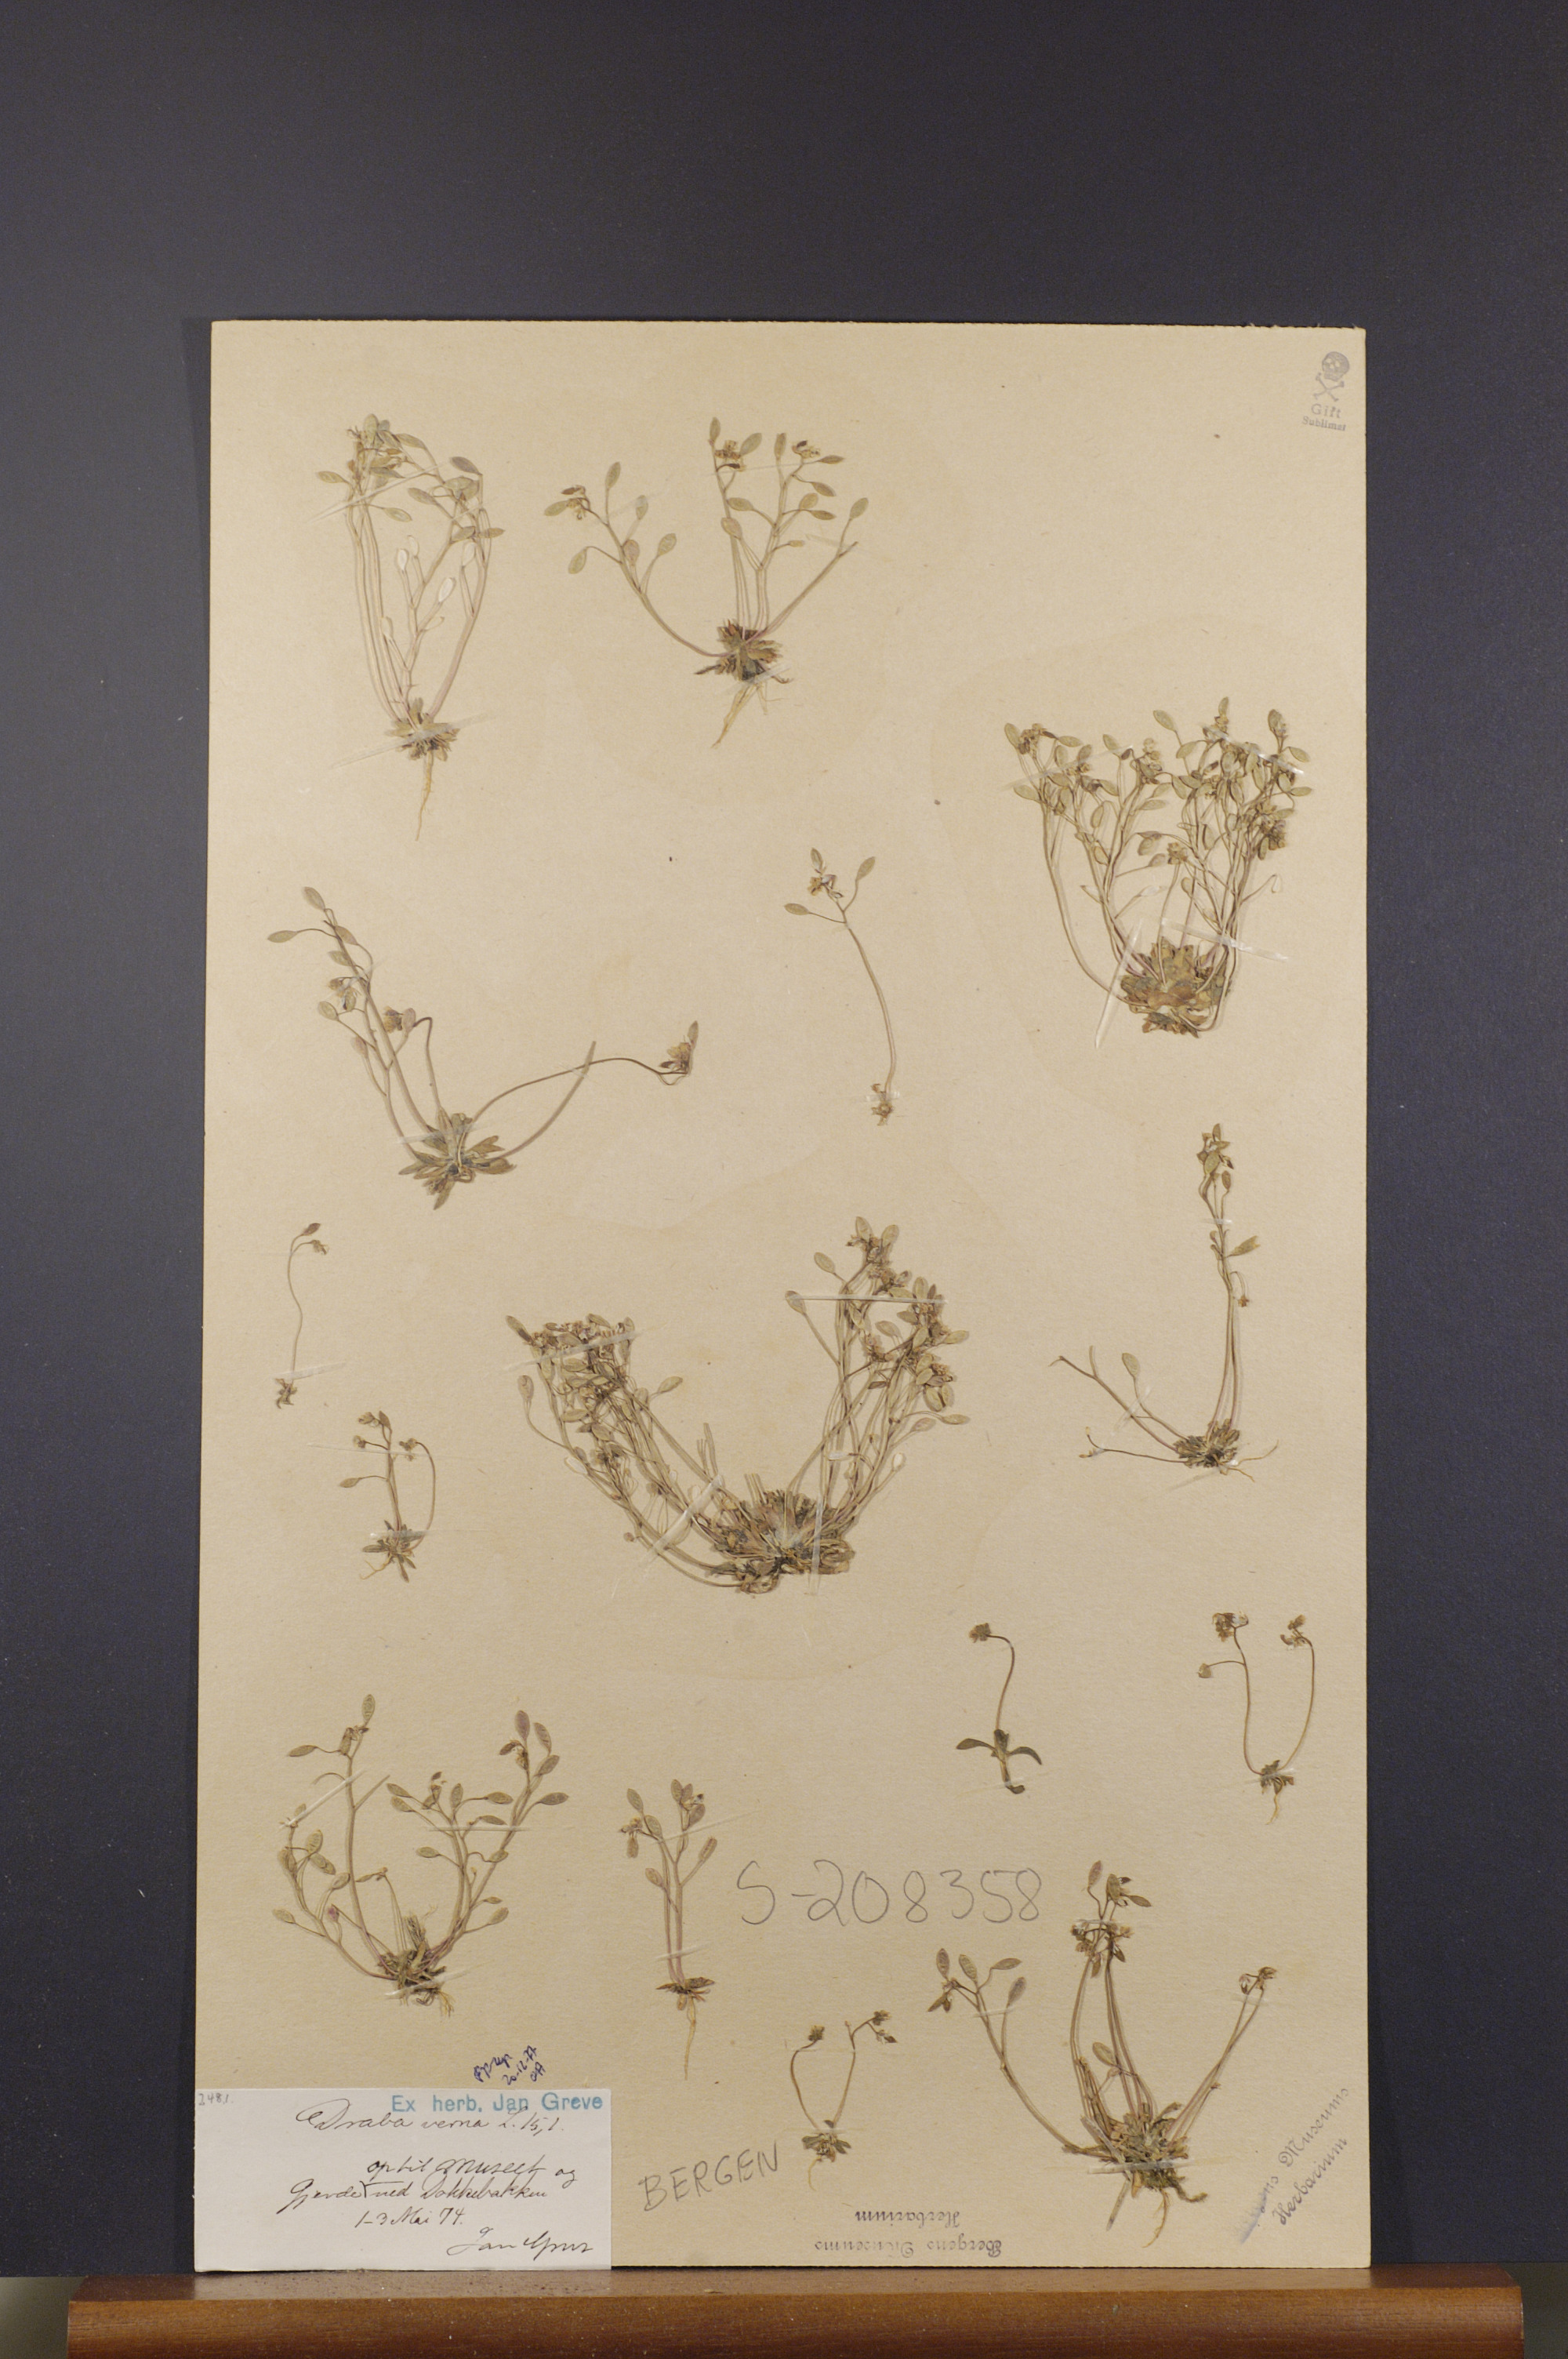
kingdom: Plantae
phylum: Tracheophyta
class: Magnoliopsida
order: Brassicales
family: Brassicaceae
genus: Draba
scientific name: Draba verna
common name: Spring draba
